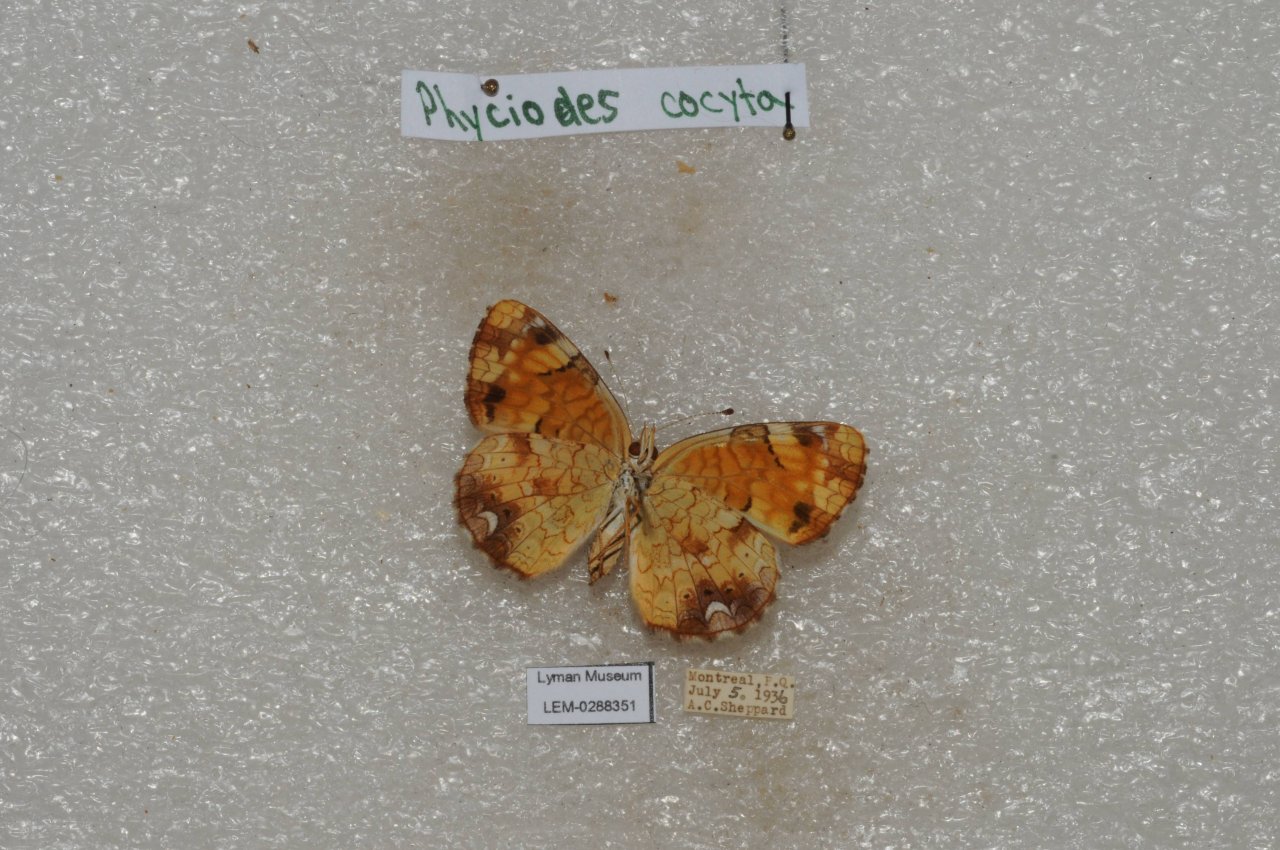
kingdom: Animalia
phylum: Arthropoda
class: Insecta
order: Lepidoptera
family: Nymphalidae
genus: Phyciodes
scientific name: Phyciodes tharos
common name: Northern Crescent
